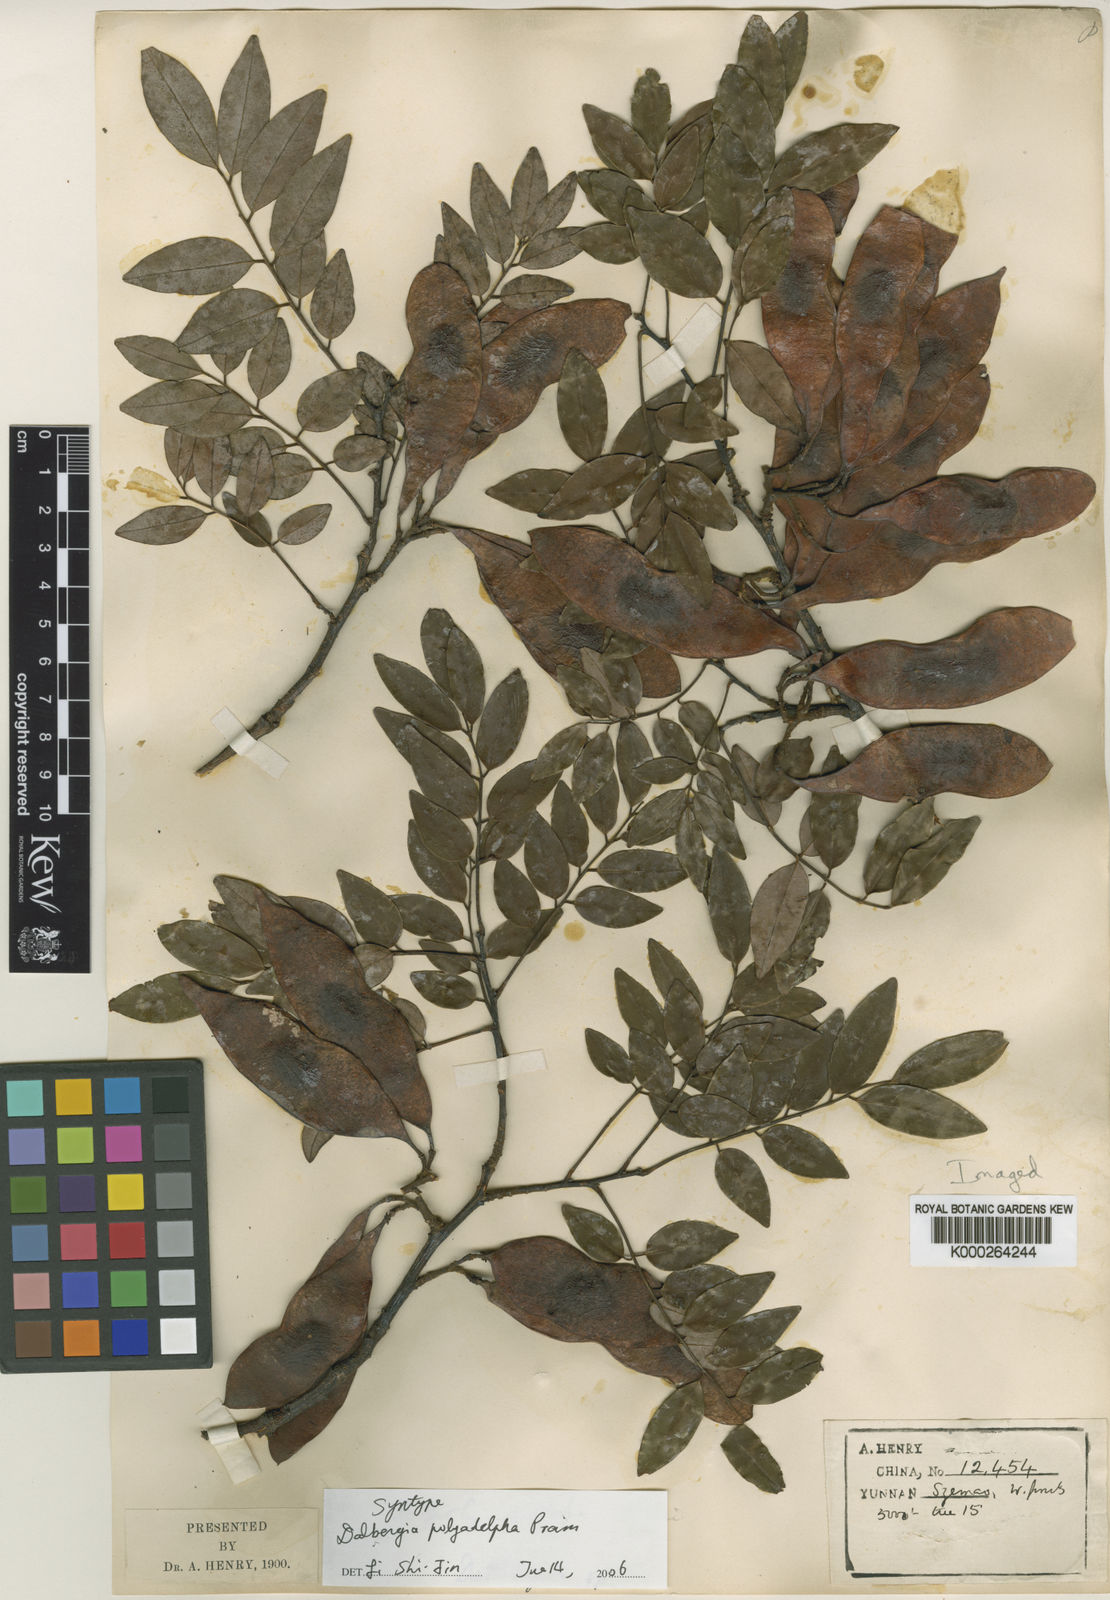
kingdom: Plantae
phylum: Tracheophyta
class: Magnoliopsida
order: Fabales
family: Fabaceae
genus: Dalbergia
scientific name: Dalbergia polyadelpha
